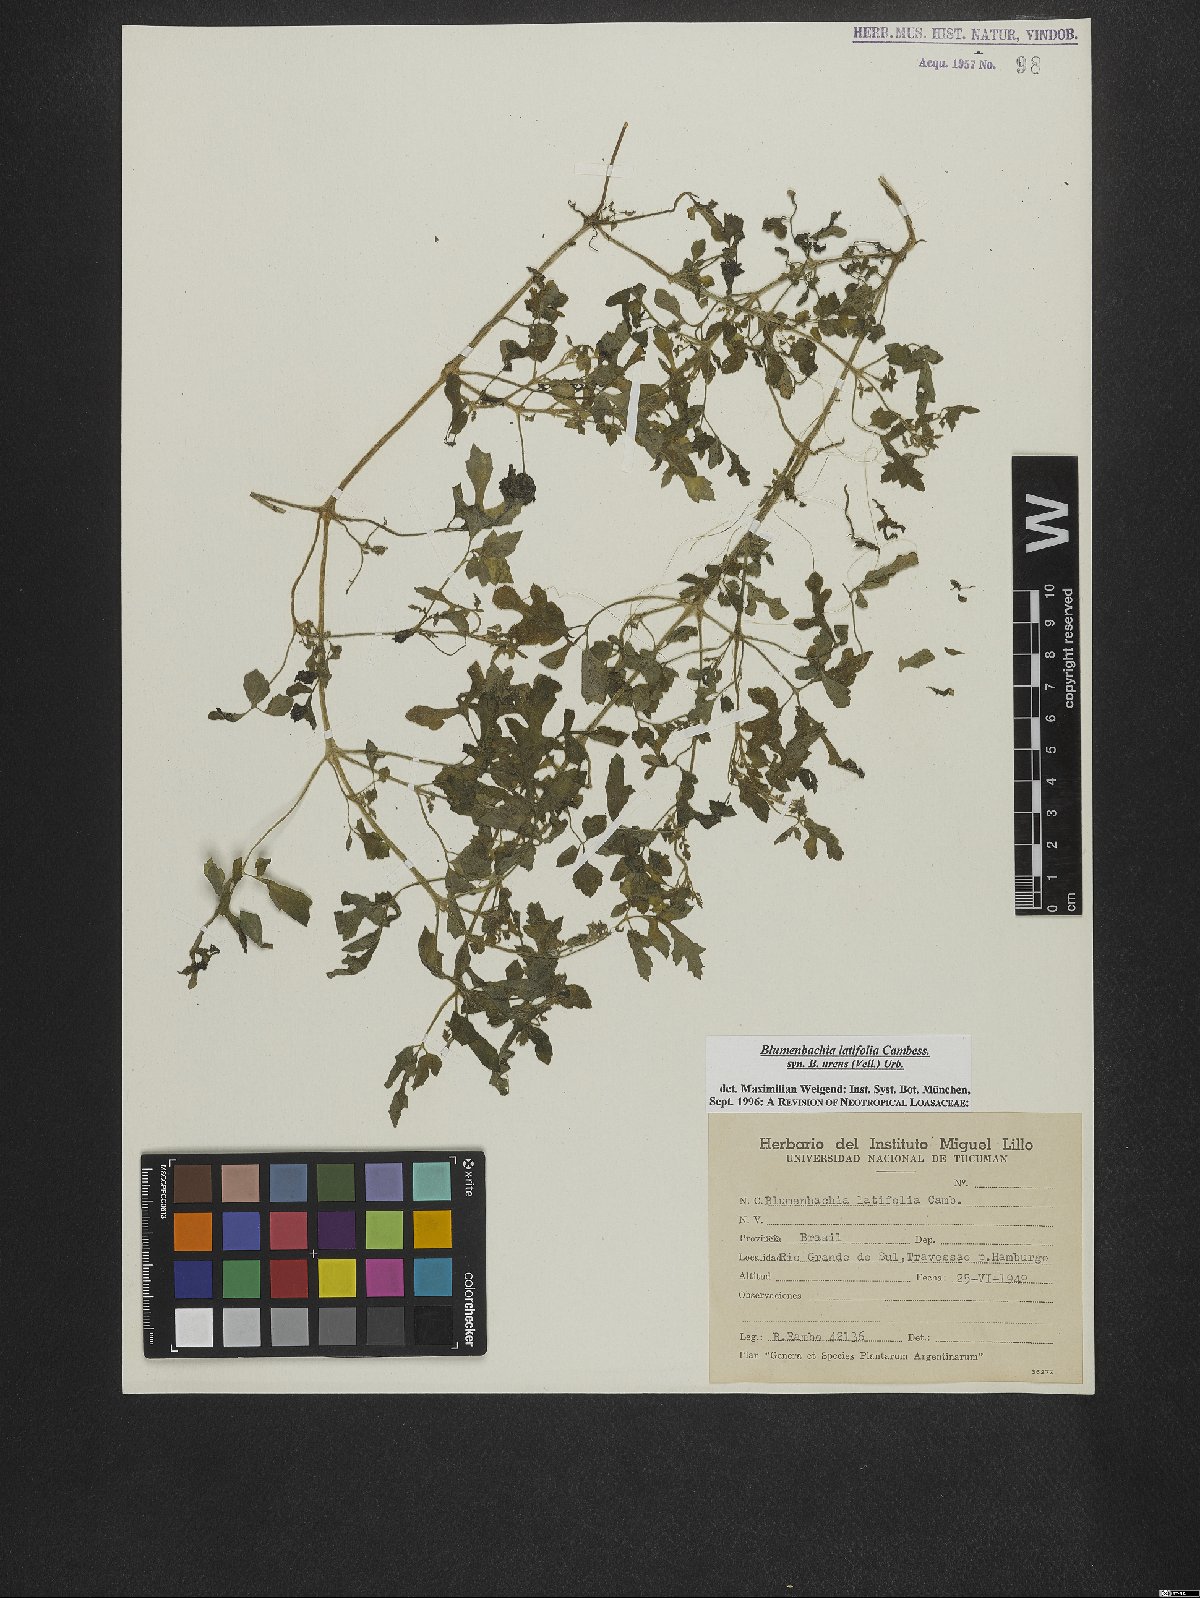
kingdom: Plantae
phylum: Tracheophyta
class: Magnoliopsida
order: Cornales
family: Loasaceae
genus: Blumenbachia
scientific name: Blumenbachia latifolia
